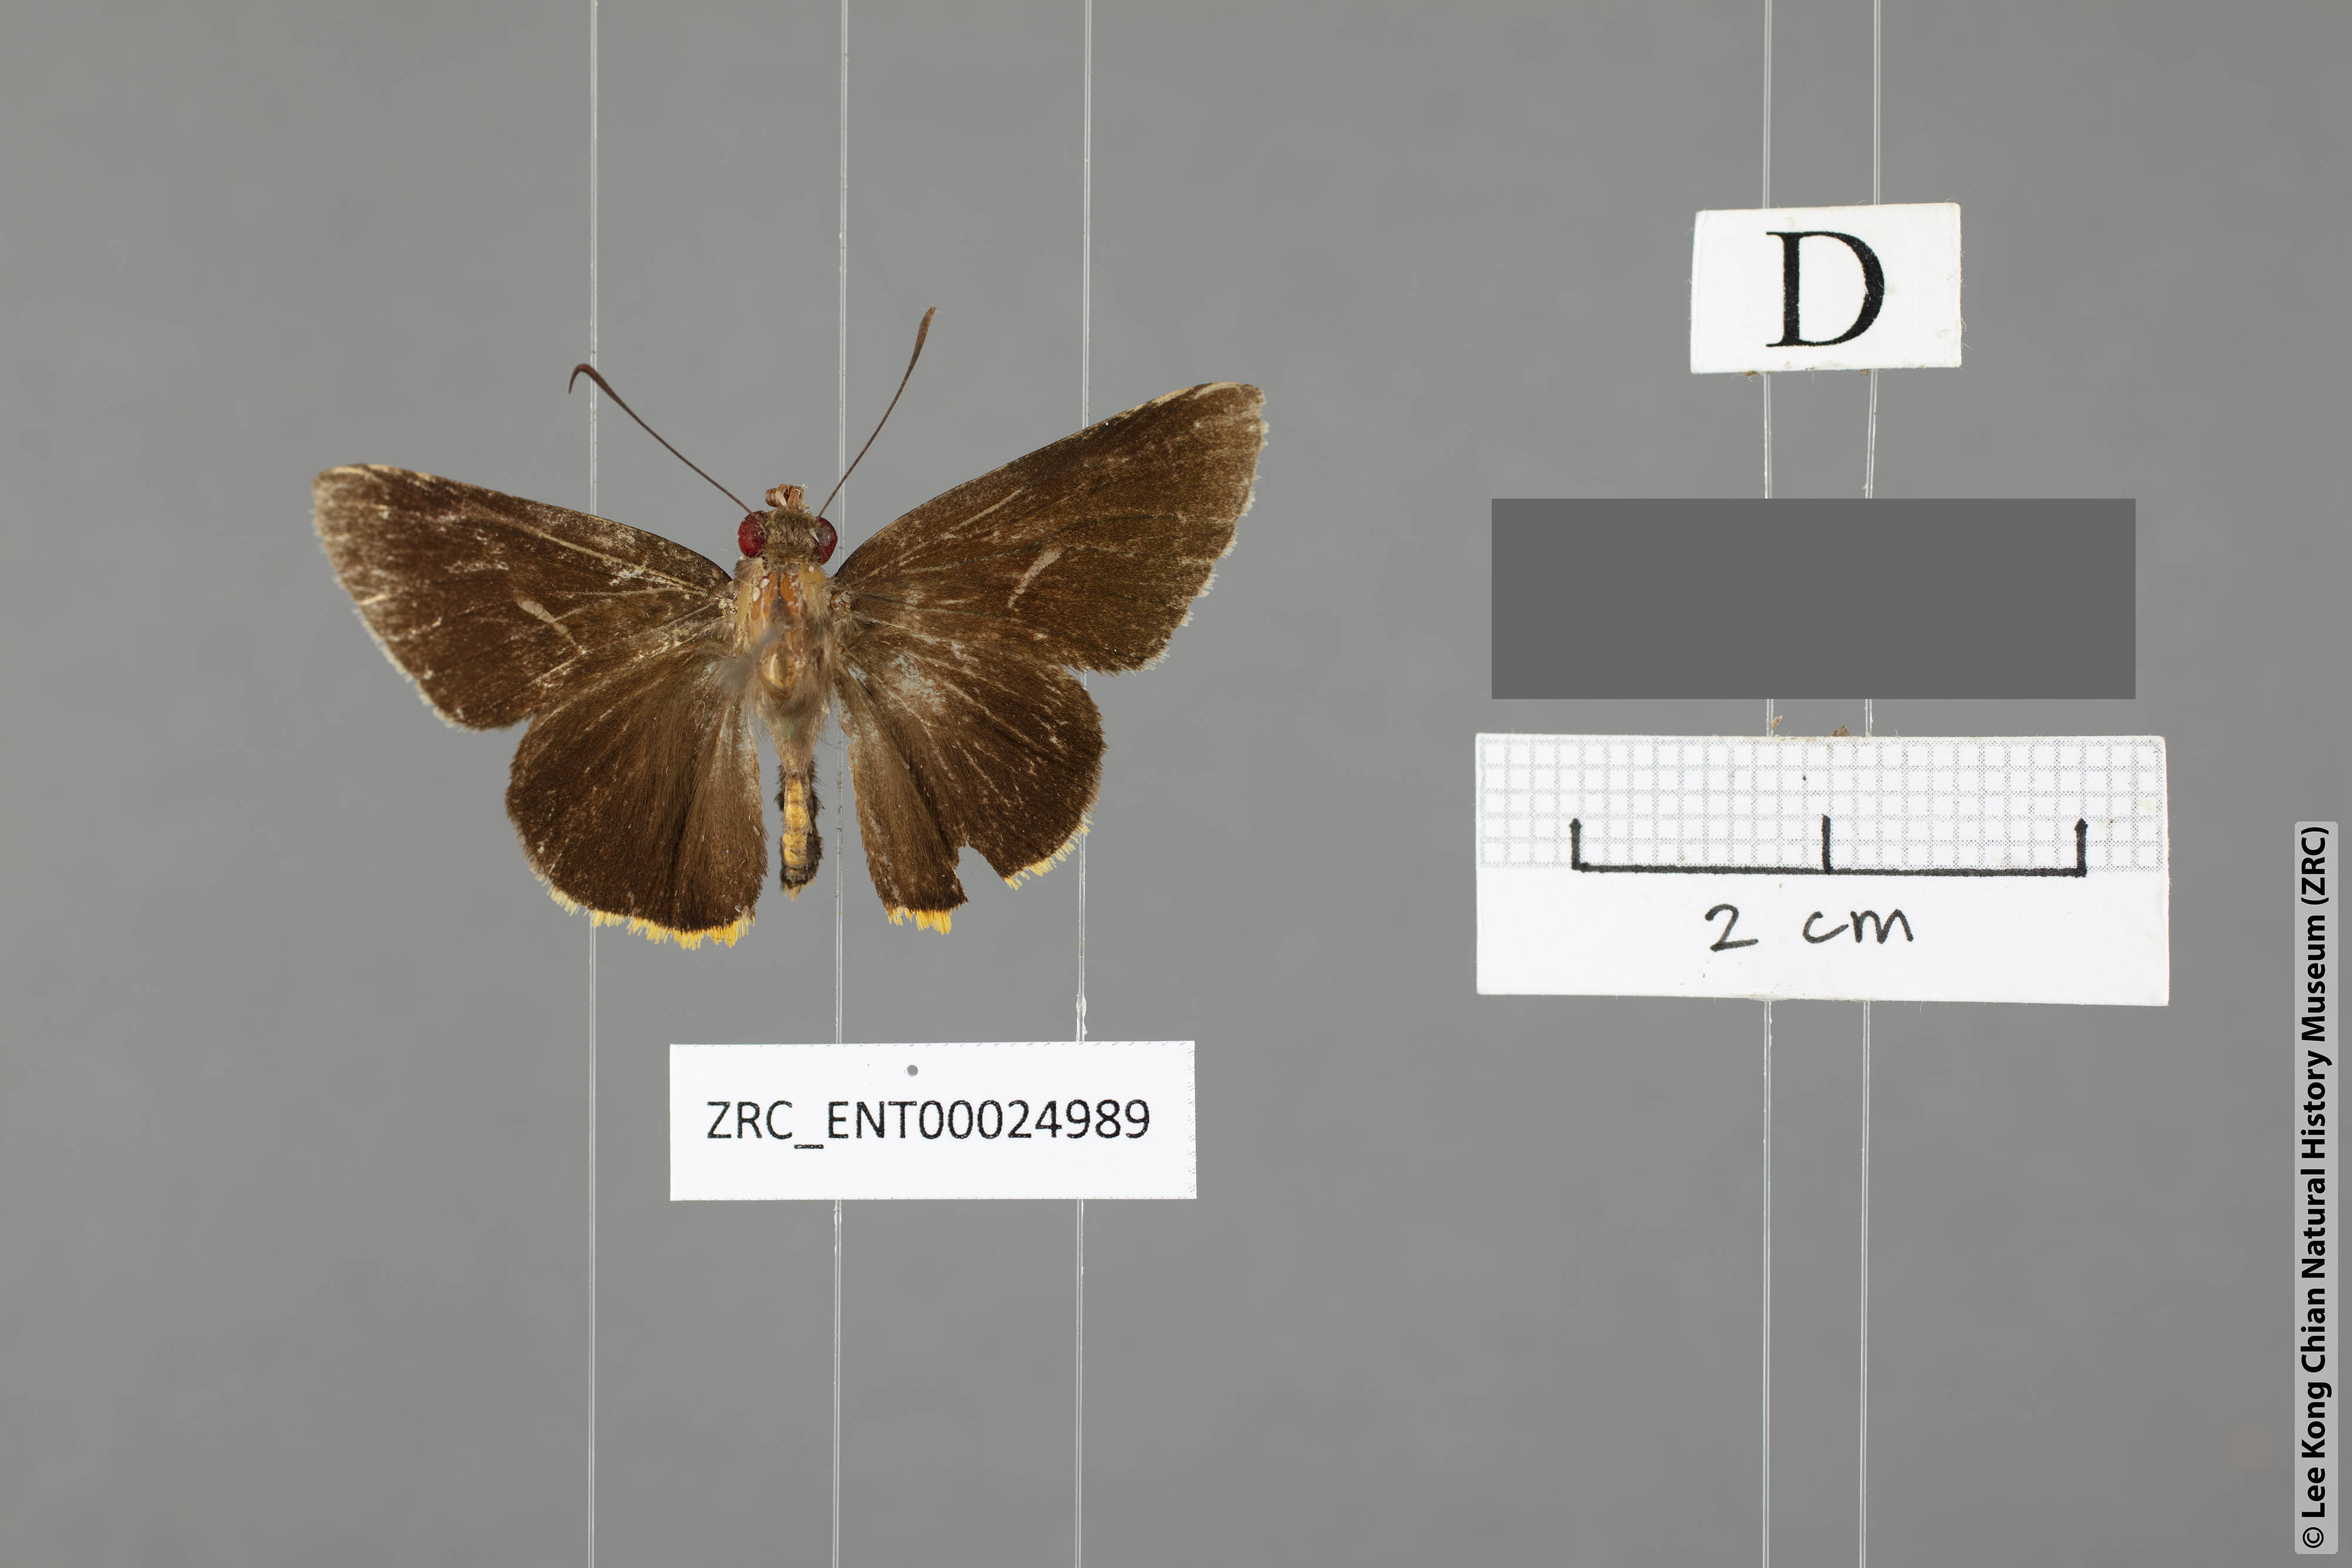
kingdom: Animalia
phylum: Arthropoda
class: Insecta
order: Lepidoptera
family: Hesperiidae
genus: Matapa
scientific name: Matapa sasivarna
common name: Black-veined redeye
